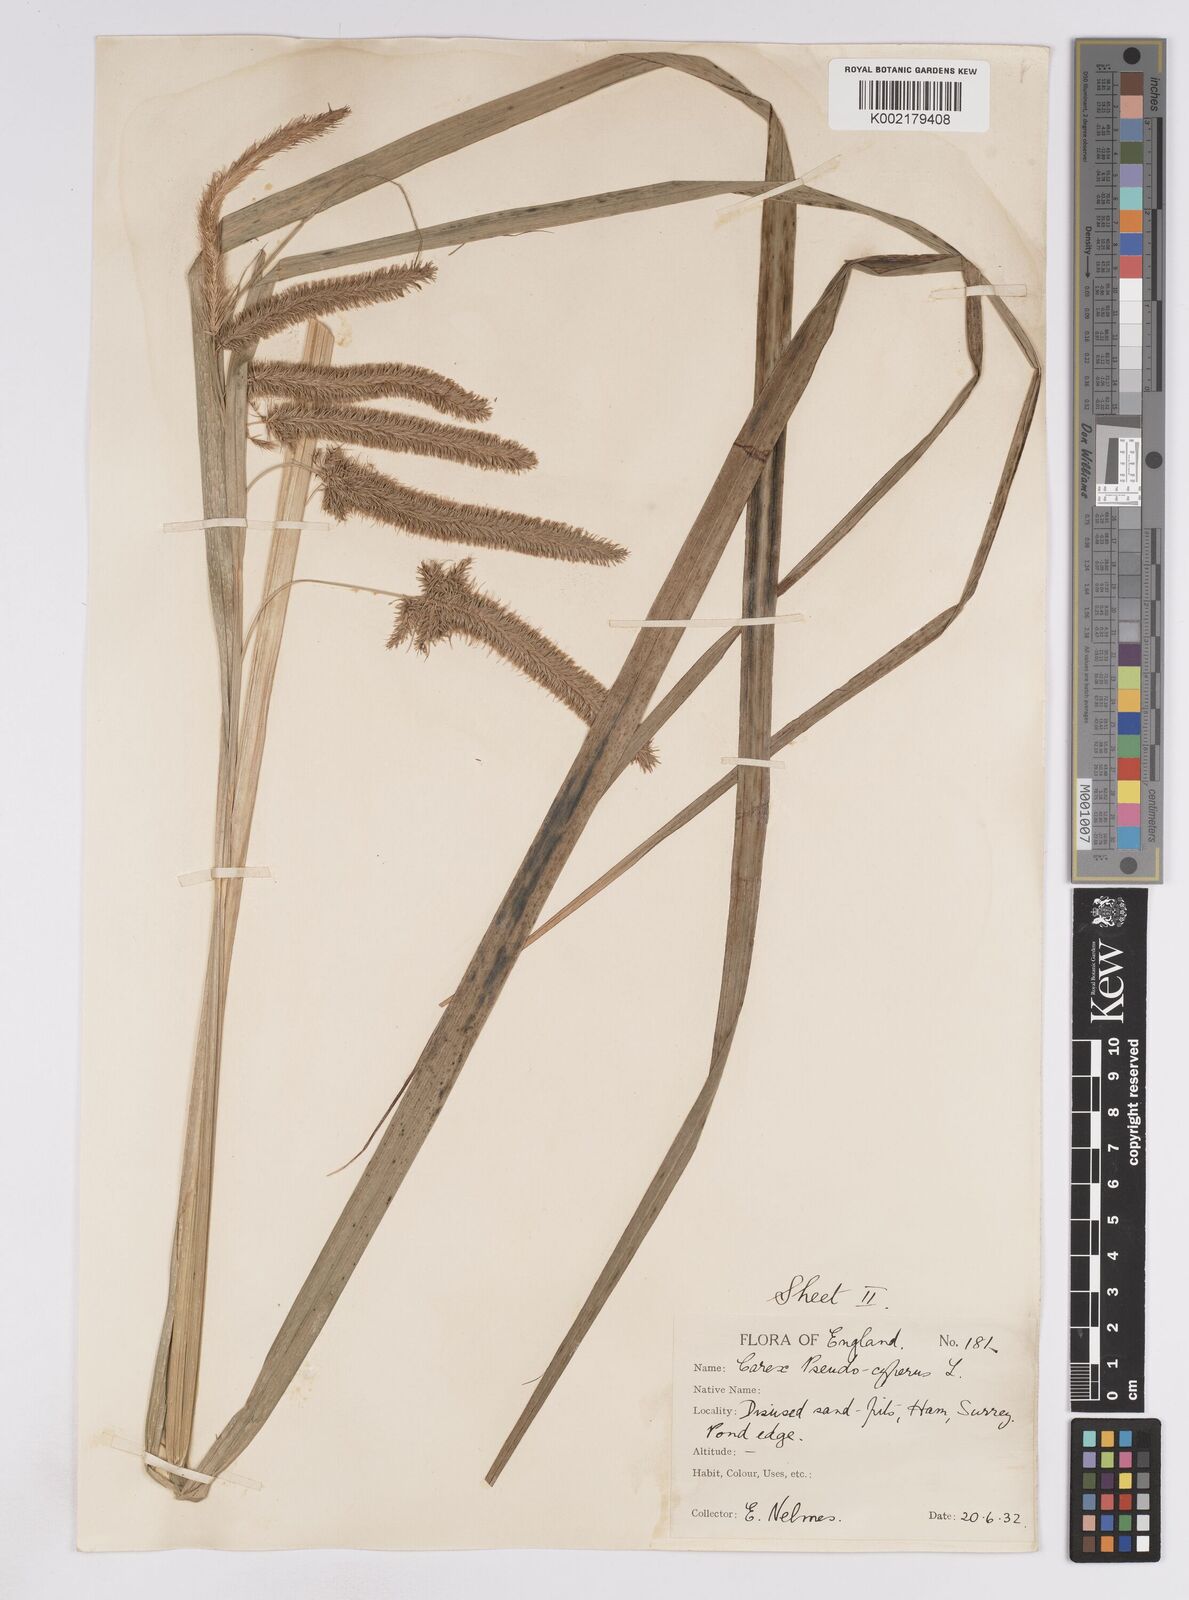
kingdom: Plantae
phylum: Tracheophyta
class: Liliopsida
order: Poales
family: Cyperaceae
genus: Carex
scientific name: Carex pseudocyperus
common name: Cyperus sedge
